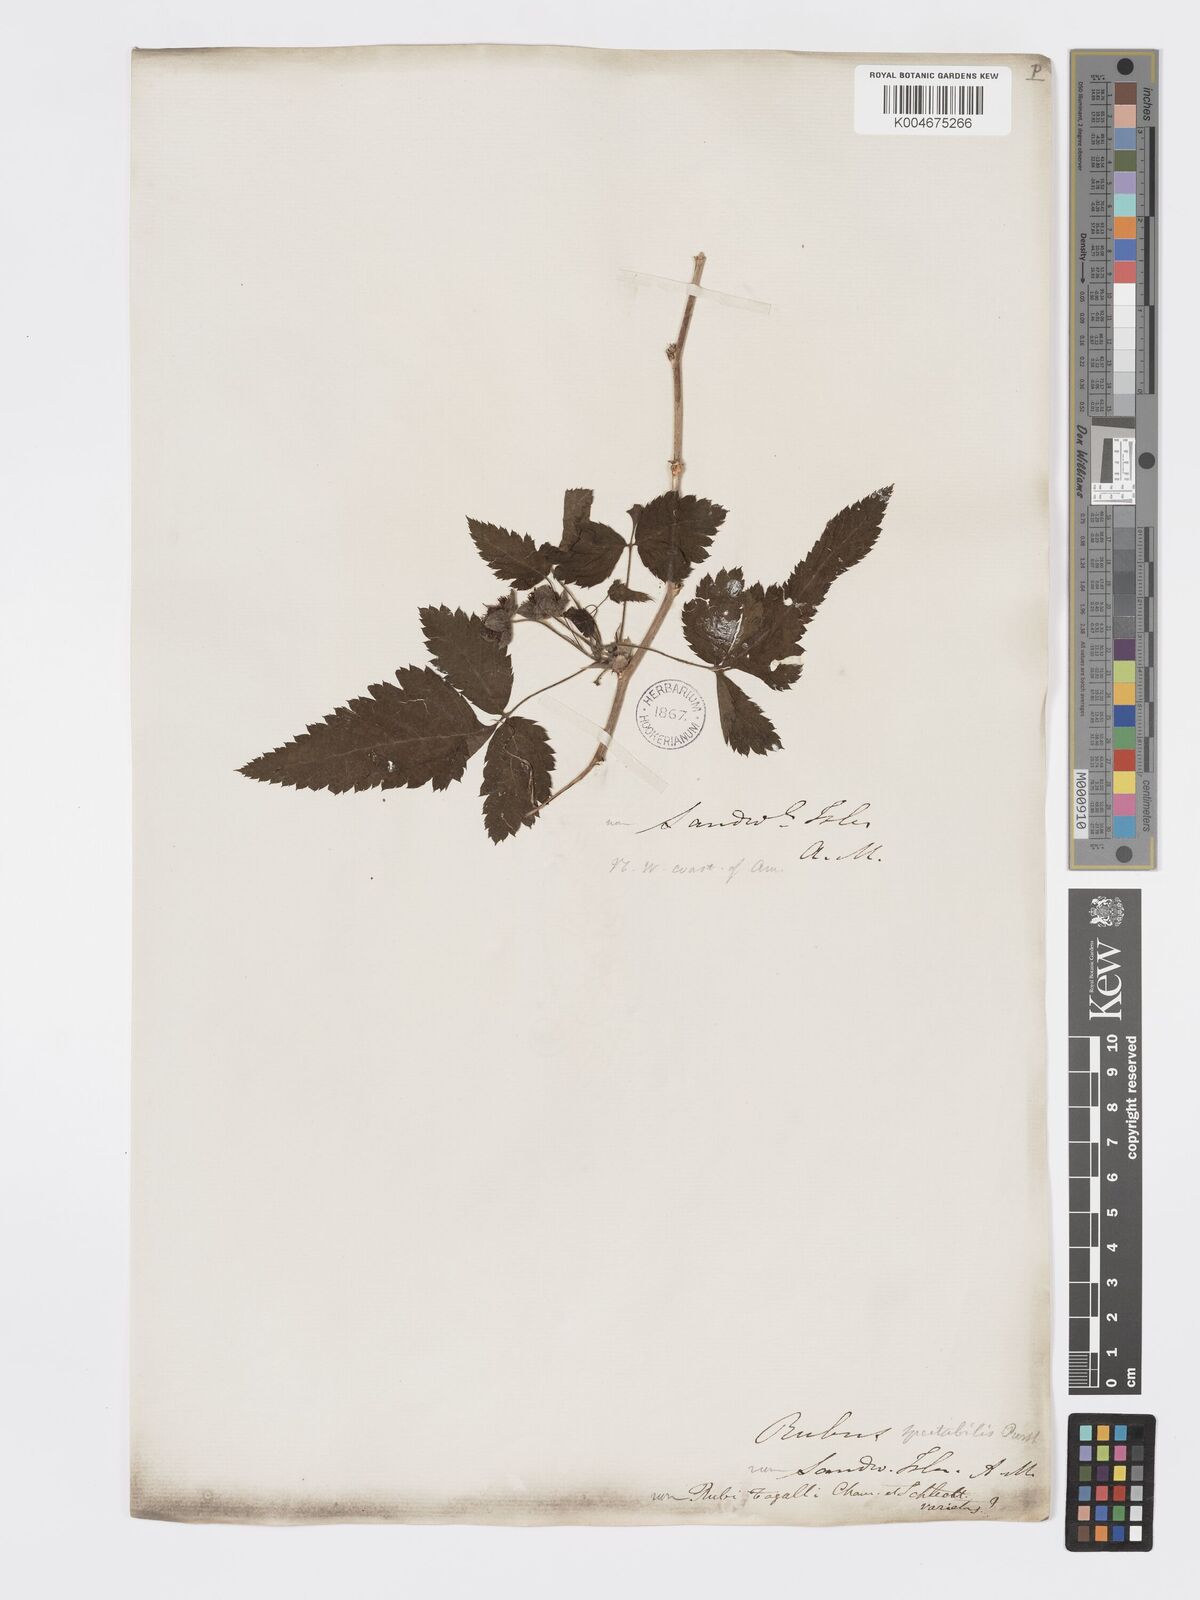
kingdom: Plantae
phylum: Tracheophyta
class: Magnoliopsida
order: Rosales
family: Rosaceae
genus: Rubus
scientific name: Rubus hawaiensis
